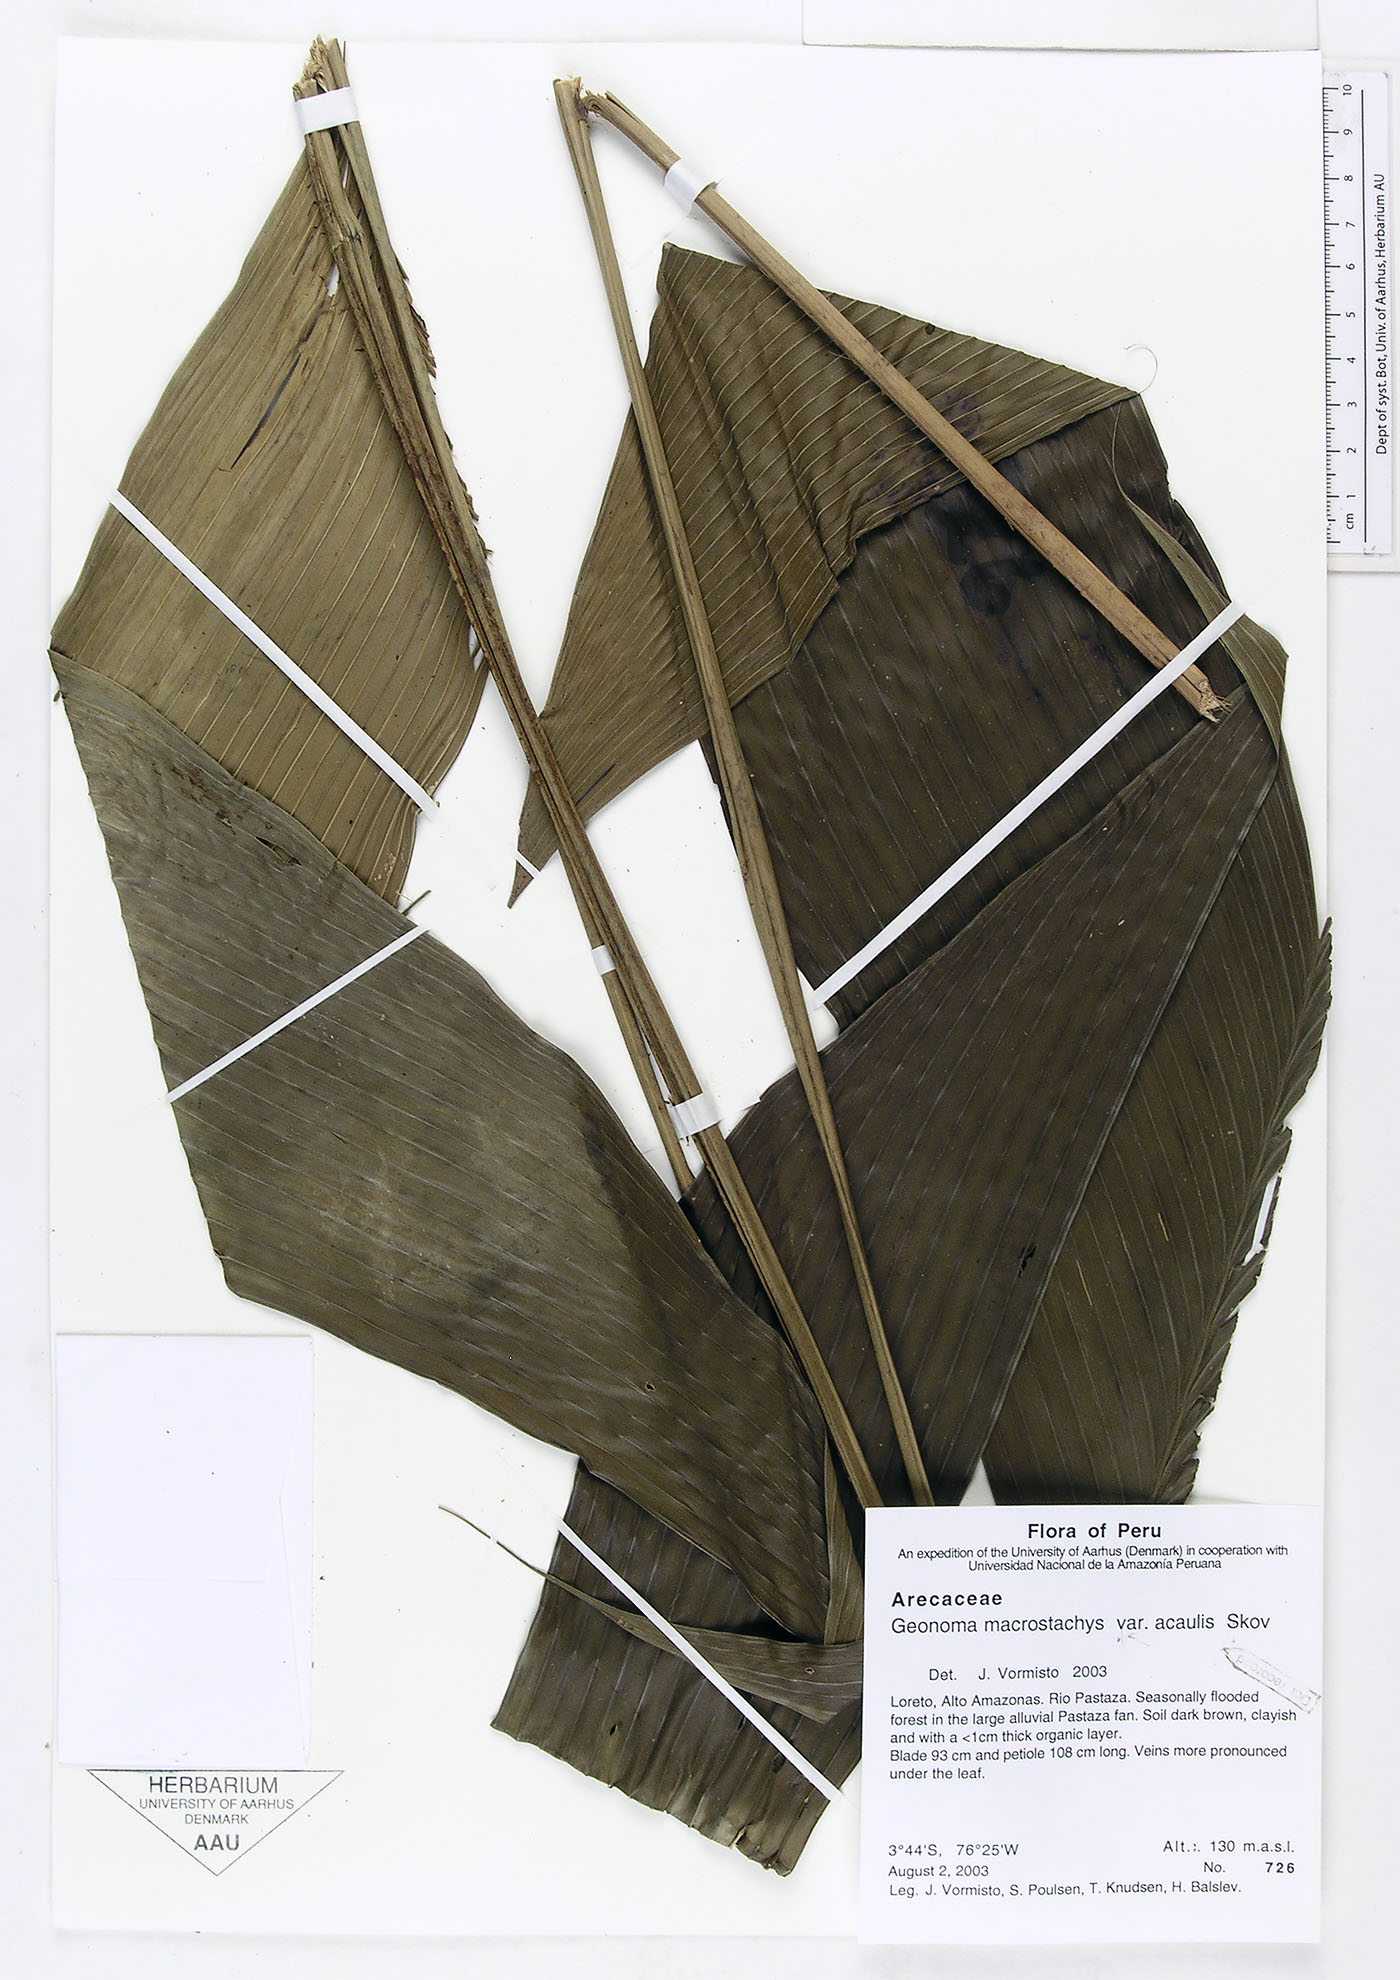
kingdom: Plantae
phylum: Tracheophyta
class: Liliopsida
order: Arecales
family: Arecaceae
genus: Geonoma
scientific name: Geonoma macrostachys
